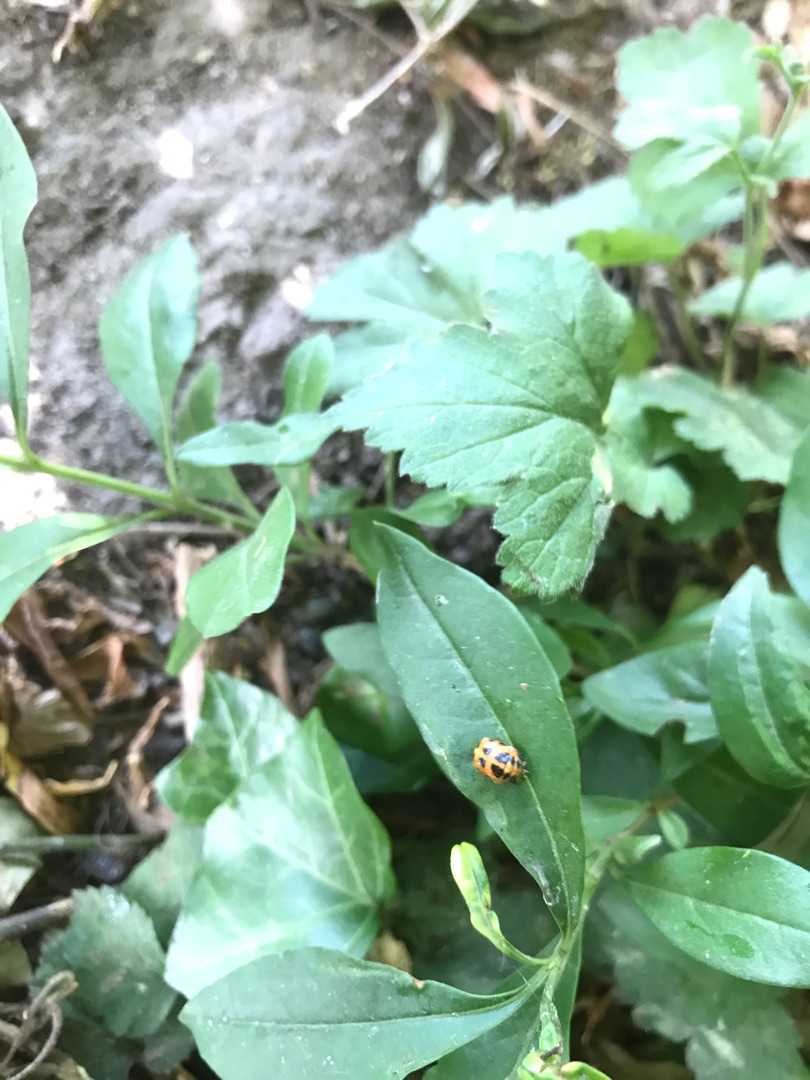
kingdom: Animalia
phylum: Arthropoda
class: Insecta
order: Coleoptera
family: Coccinellidae
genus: Harmonia
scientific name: Harmonia axyridis
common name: Harlekinmariehøne
